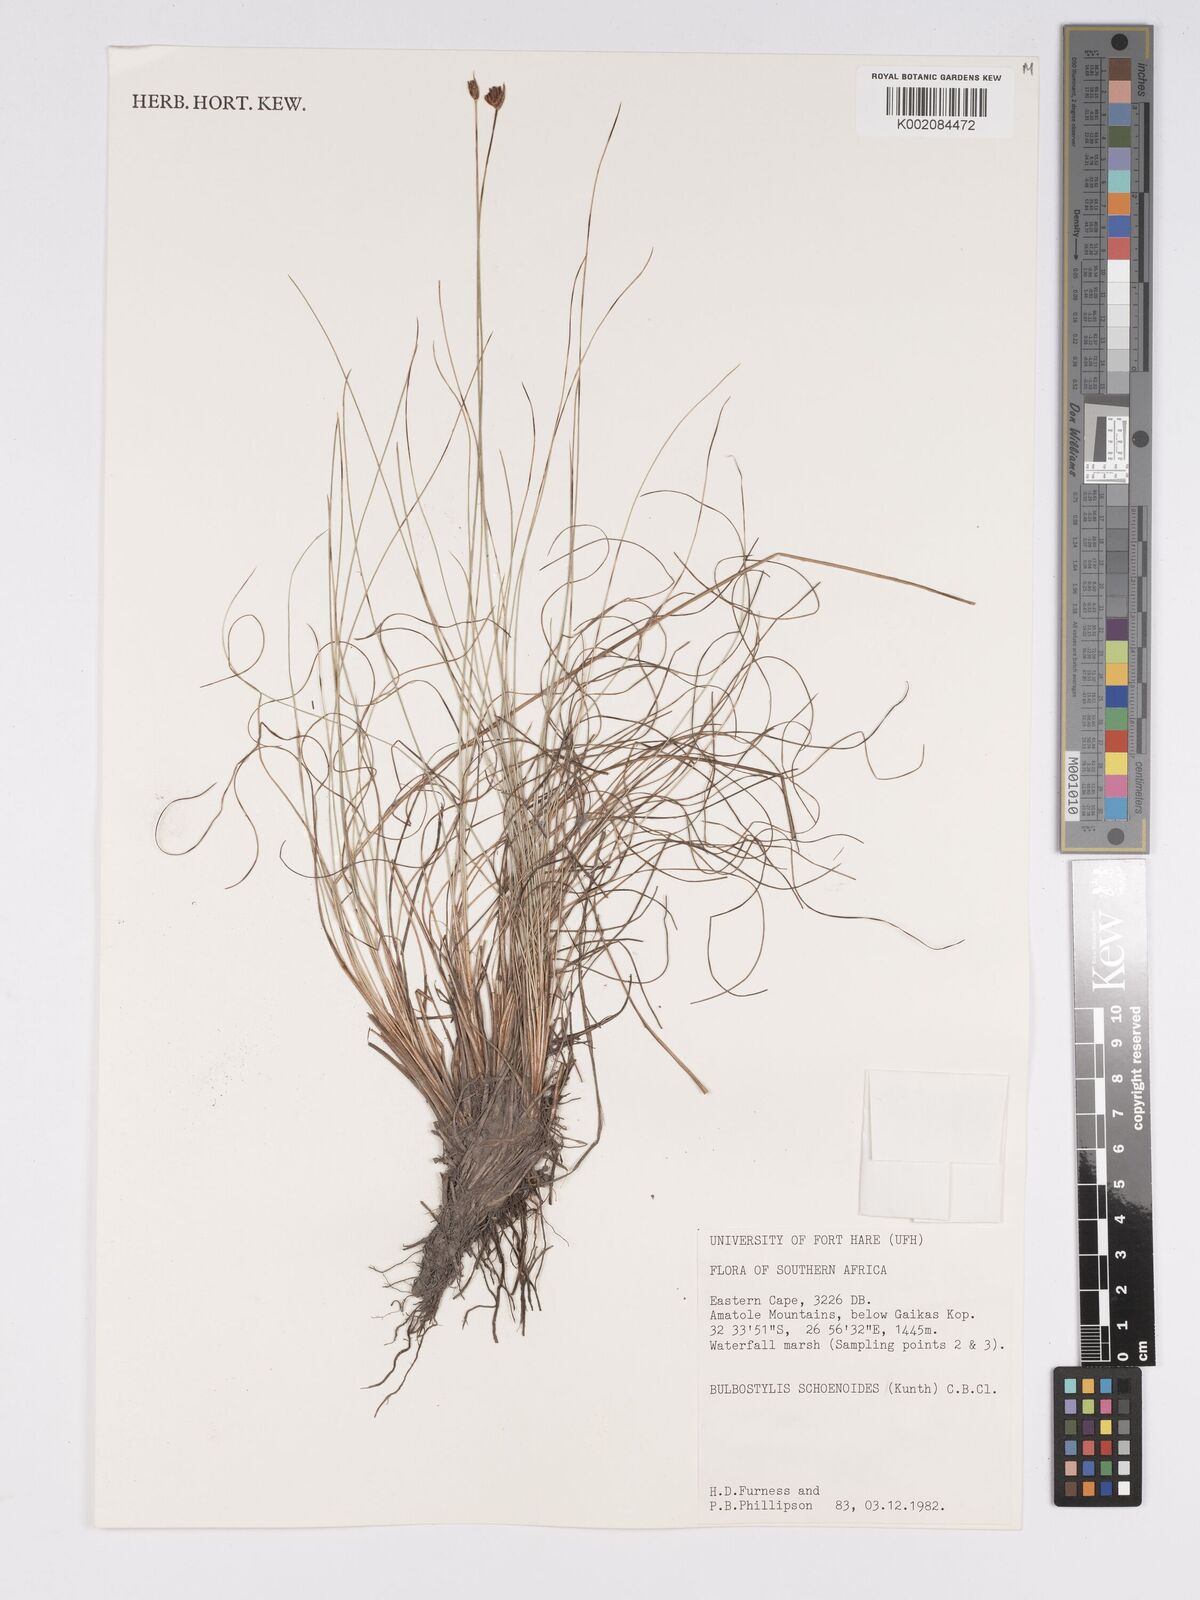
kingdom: Plantae
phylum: Tracheophyta
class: Liliopsida
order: Poales
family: Cyperaceae
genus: Bulbostylis
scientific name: Bulbostylis schoenoides
